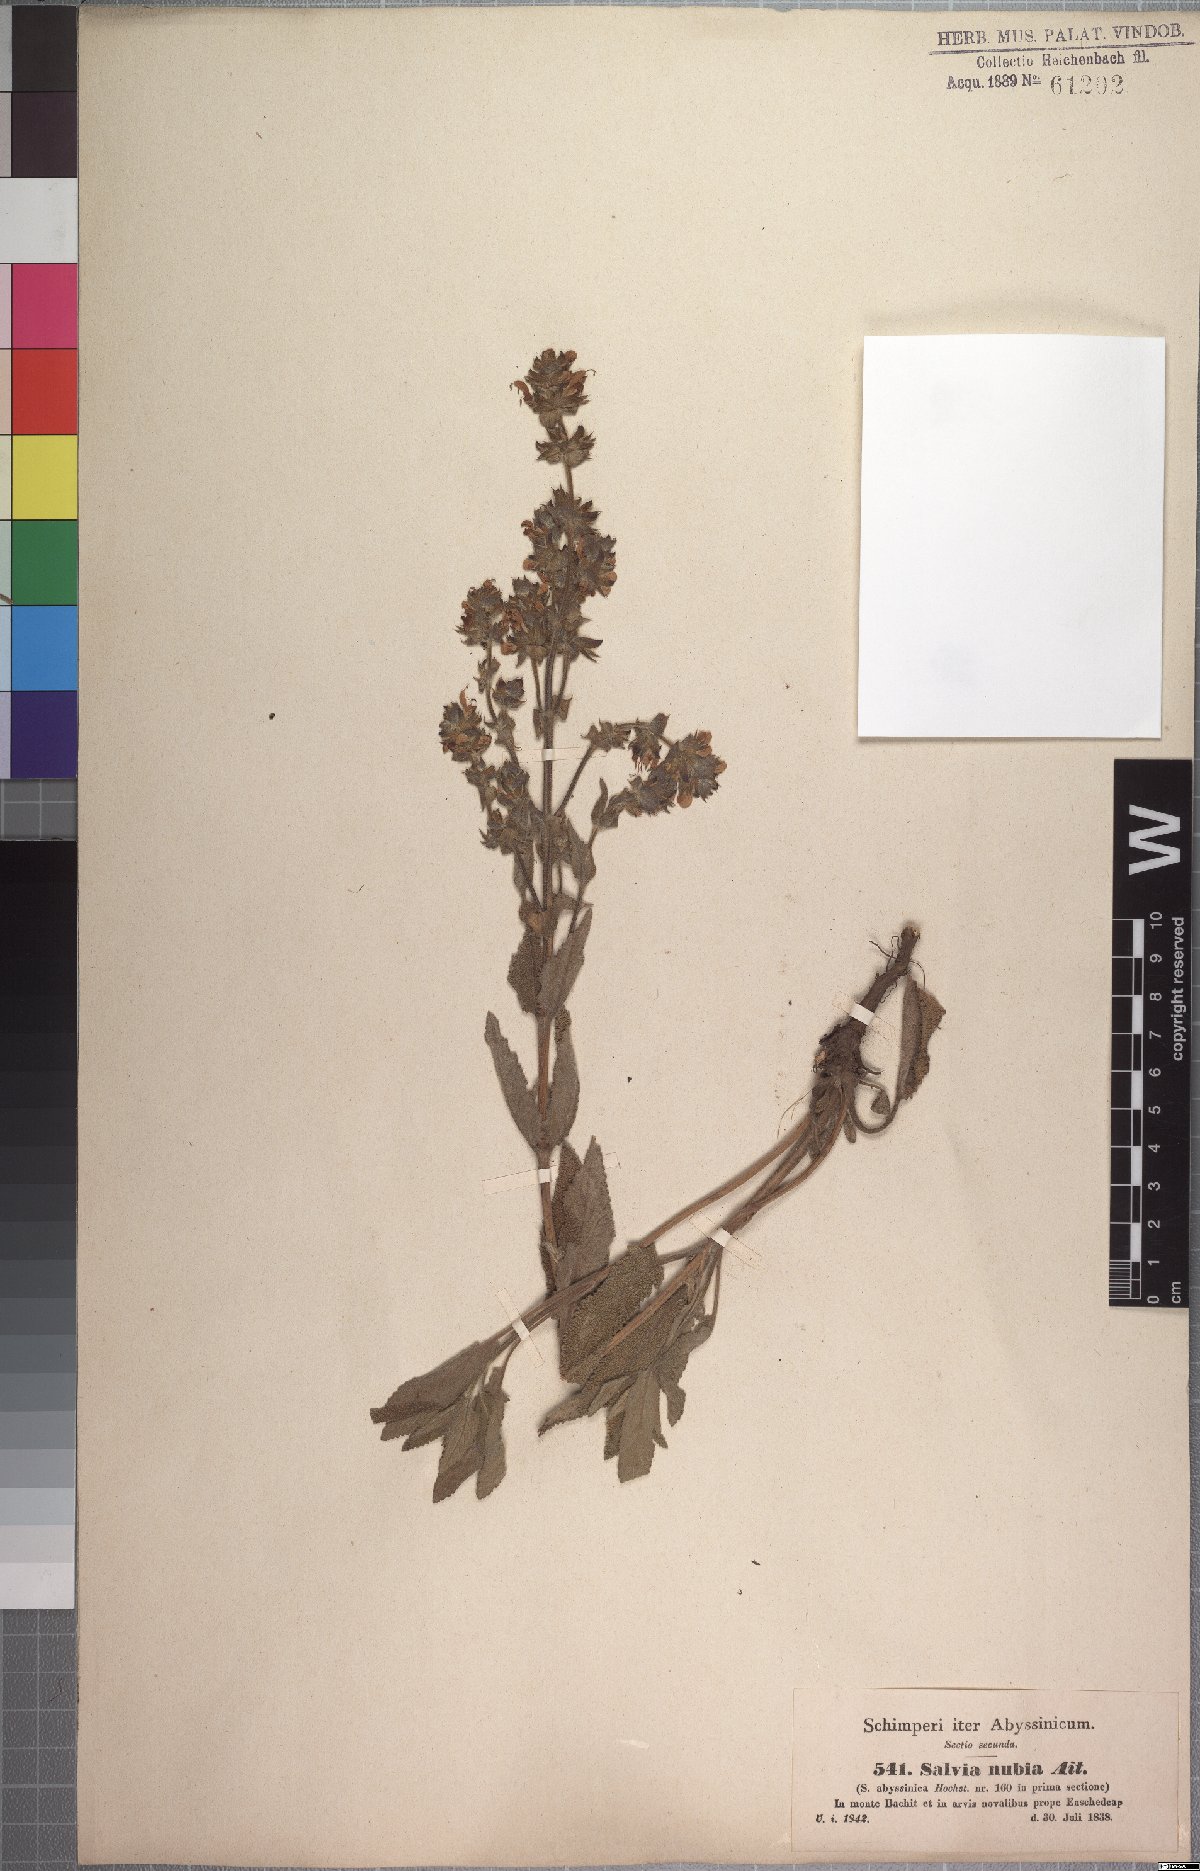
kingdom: Plantae
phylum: Tracheophyta
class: Magnoliopsida
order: Lamiales
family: Lamiaceae
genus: Salvia
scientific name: Salvia merjamie
